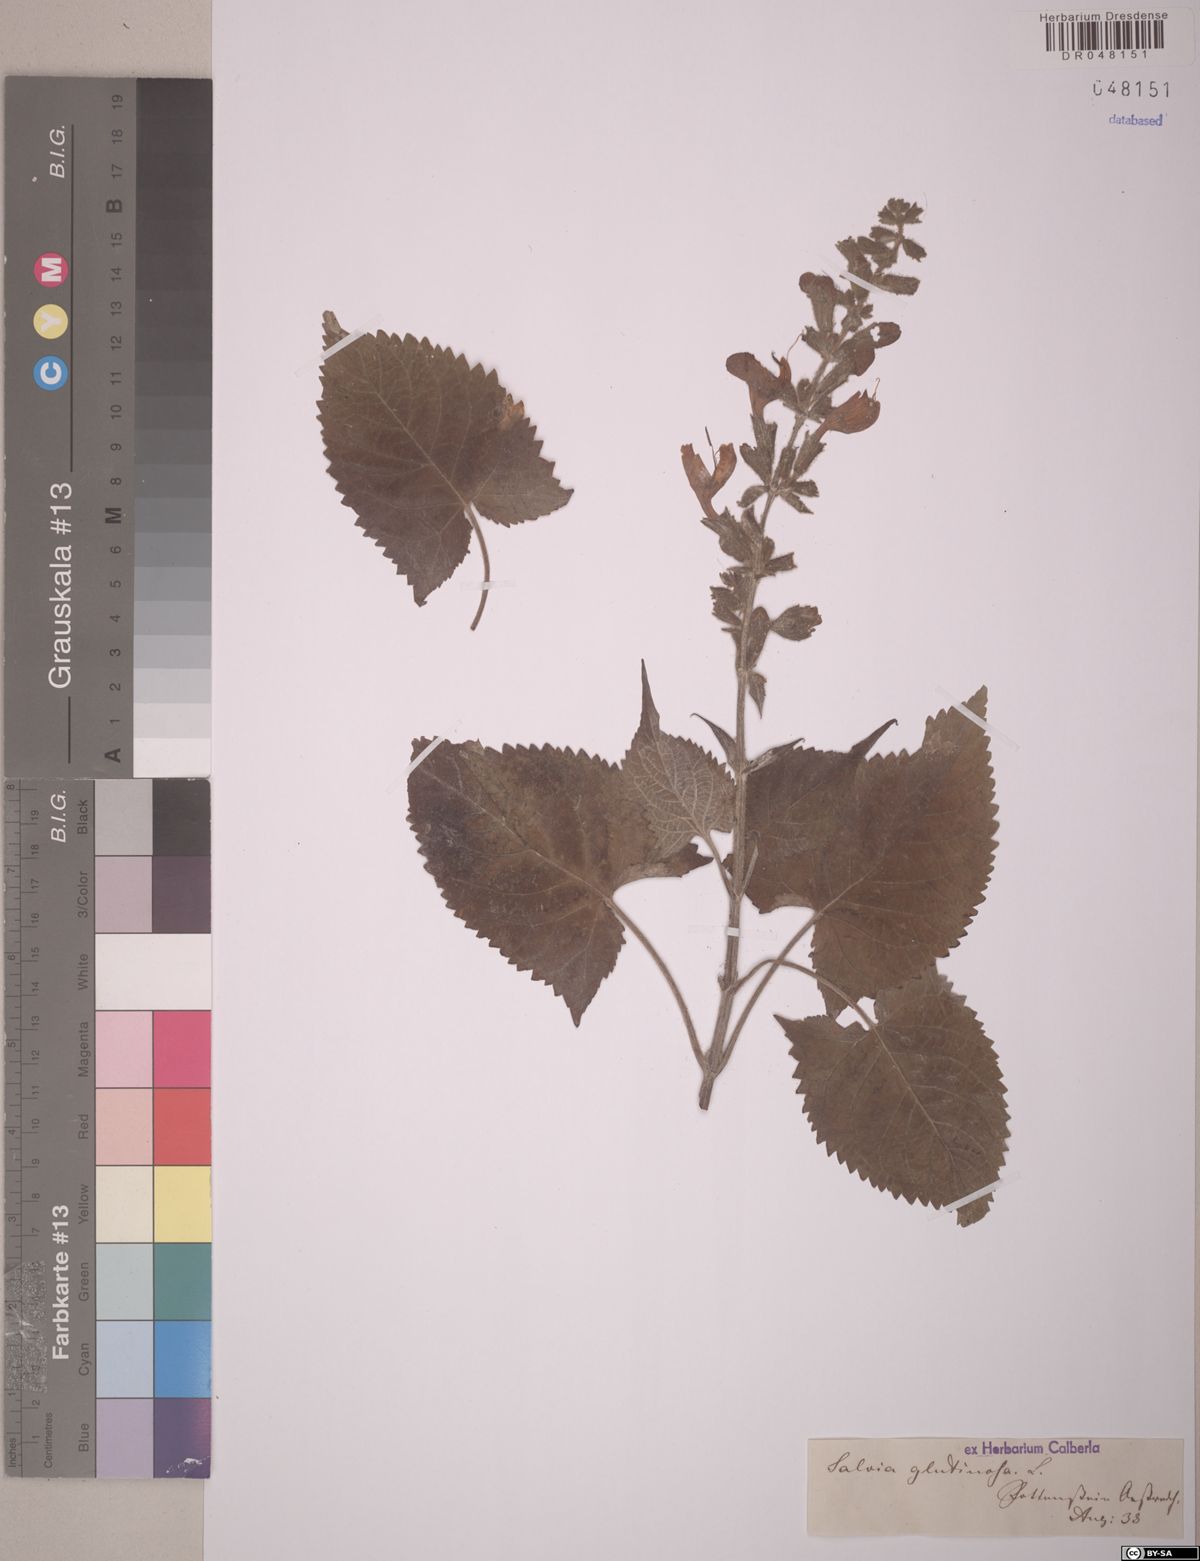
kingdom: Plantae
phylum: Tracheophyta
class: Magnoliopsida
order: Lamiales
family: Lamiaceae
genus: Salvia
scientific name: Salvia glutinosa
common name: Sticky clary
